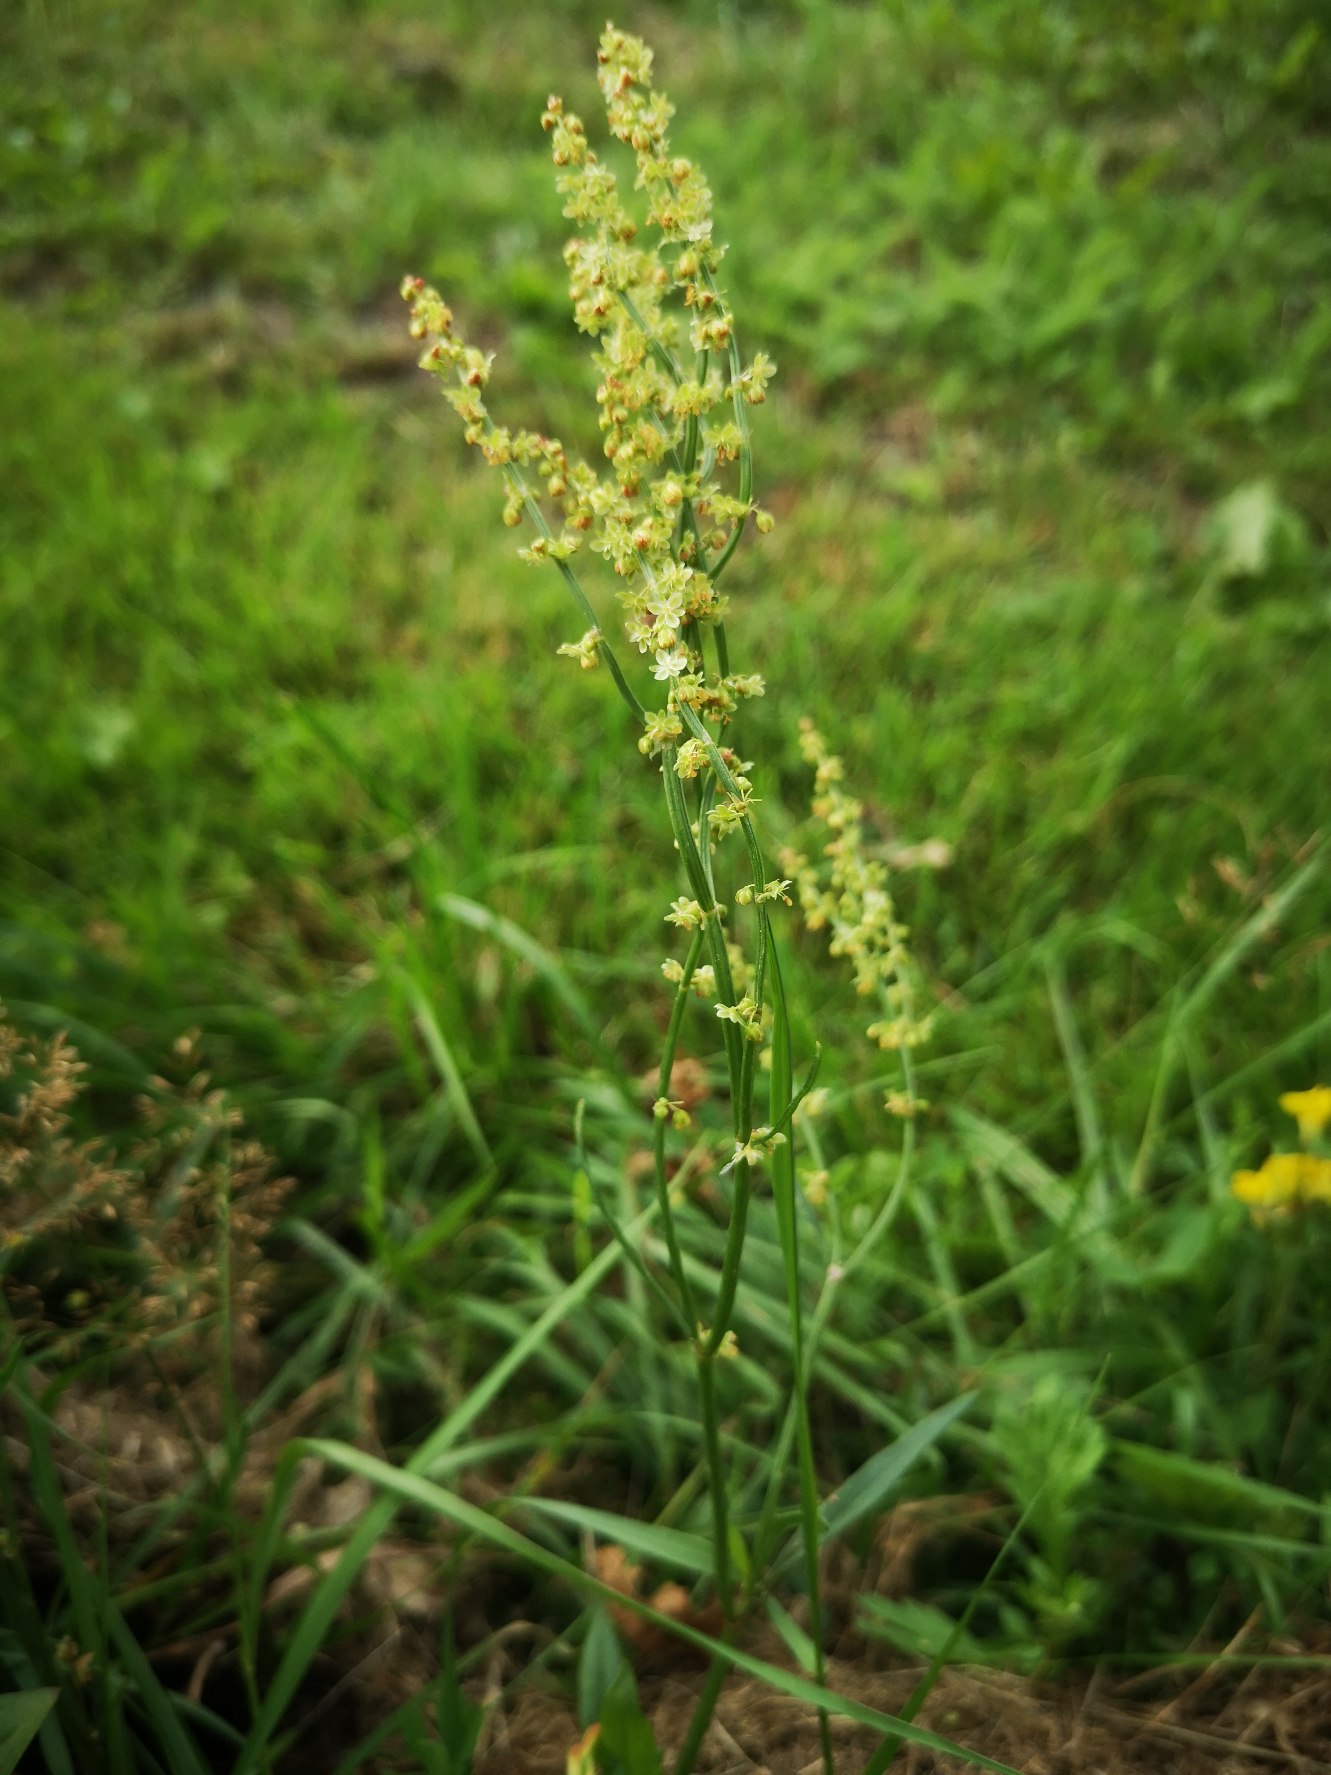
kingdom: Plantae
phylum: Tracheophyta
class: Magnoliopsida
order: Caryophyllales
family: Polygonaceae
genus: Rumex
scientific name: Rumex acetosella
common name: Rødknæ
